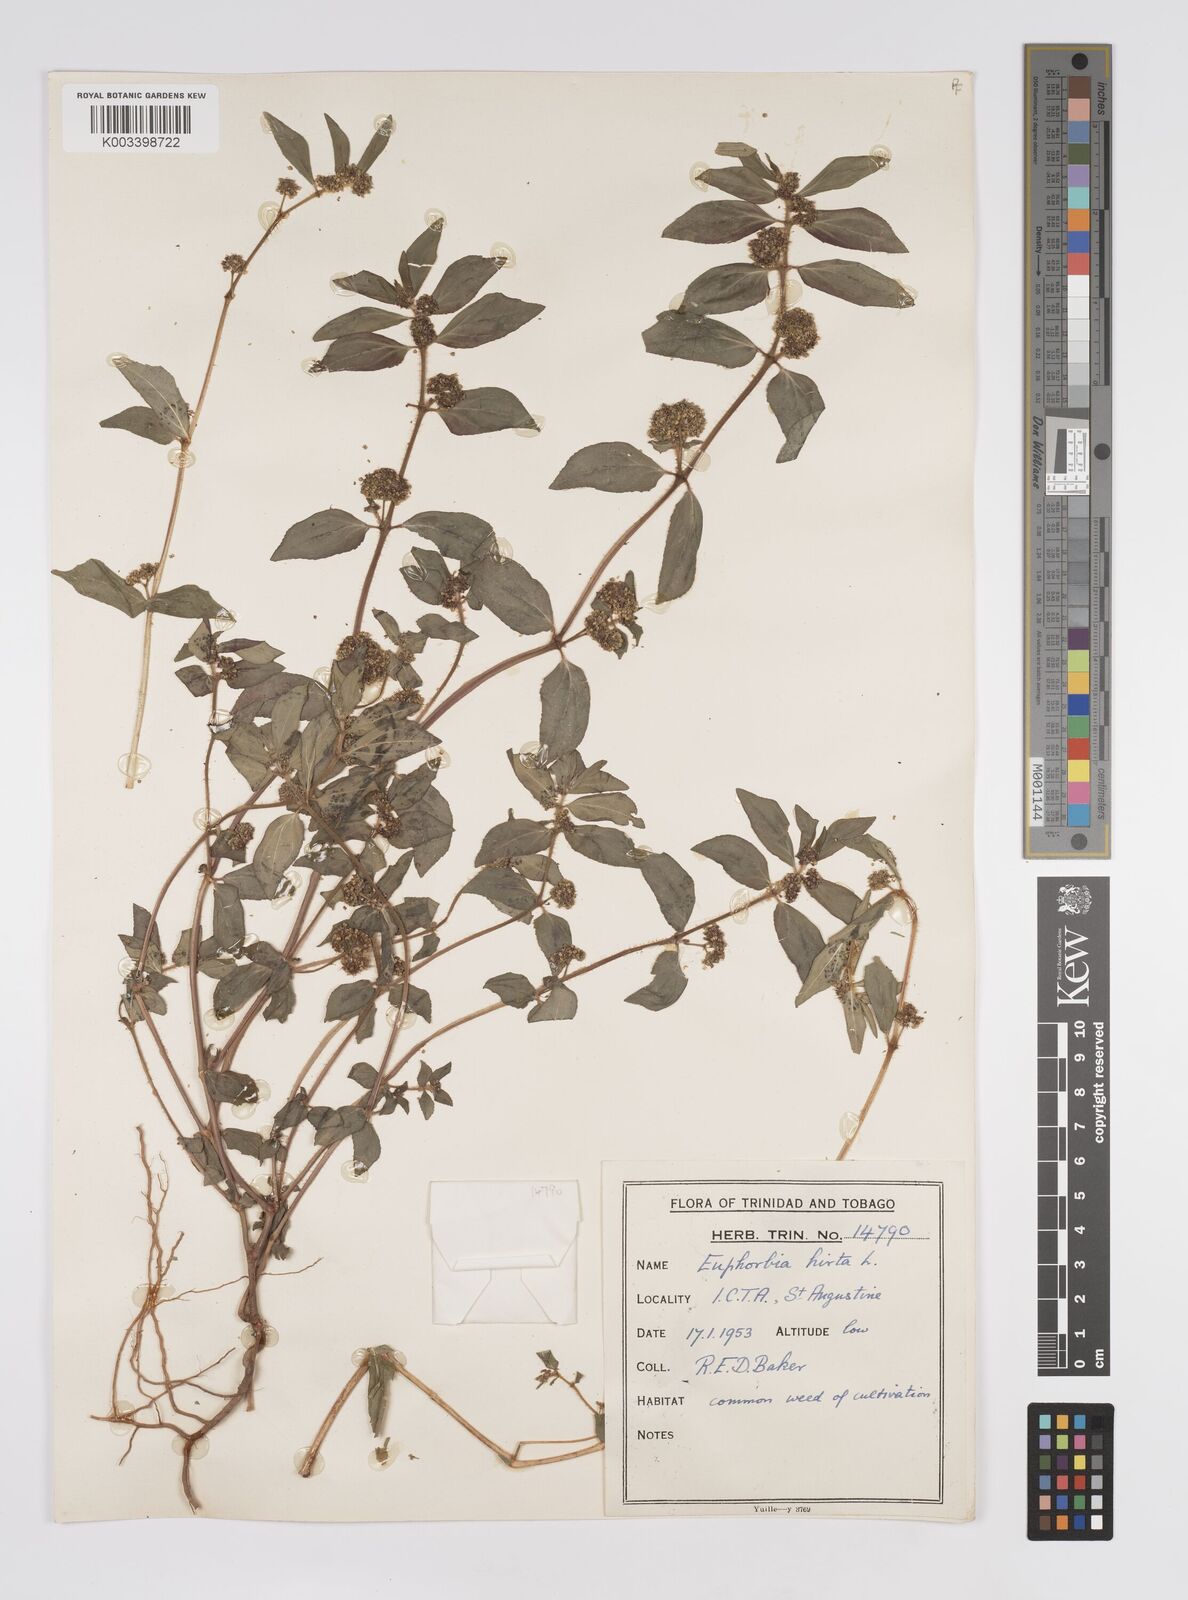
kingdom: Plantae
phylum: Tracheophyta
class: Magnoliopsida
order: Malpighiales
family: Euphorbiaceae
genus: Euphorbia
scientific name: Euphorbia hirta
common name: Pillpod sandmat
